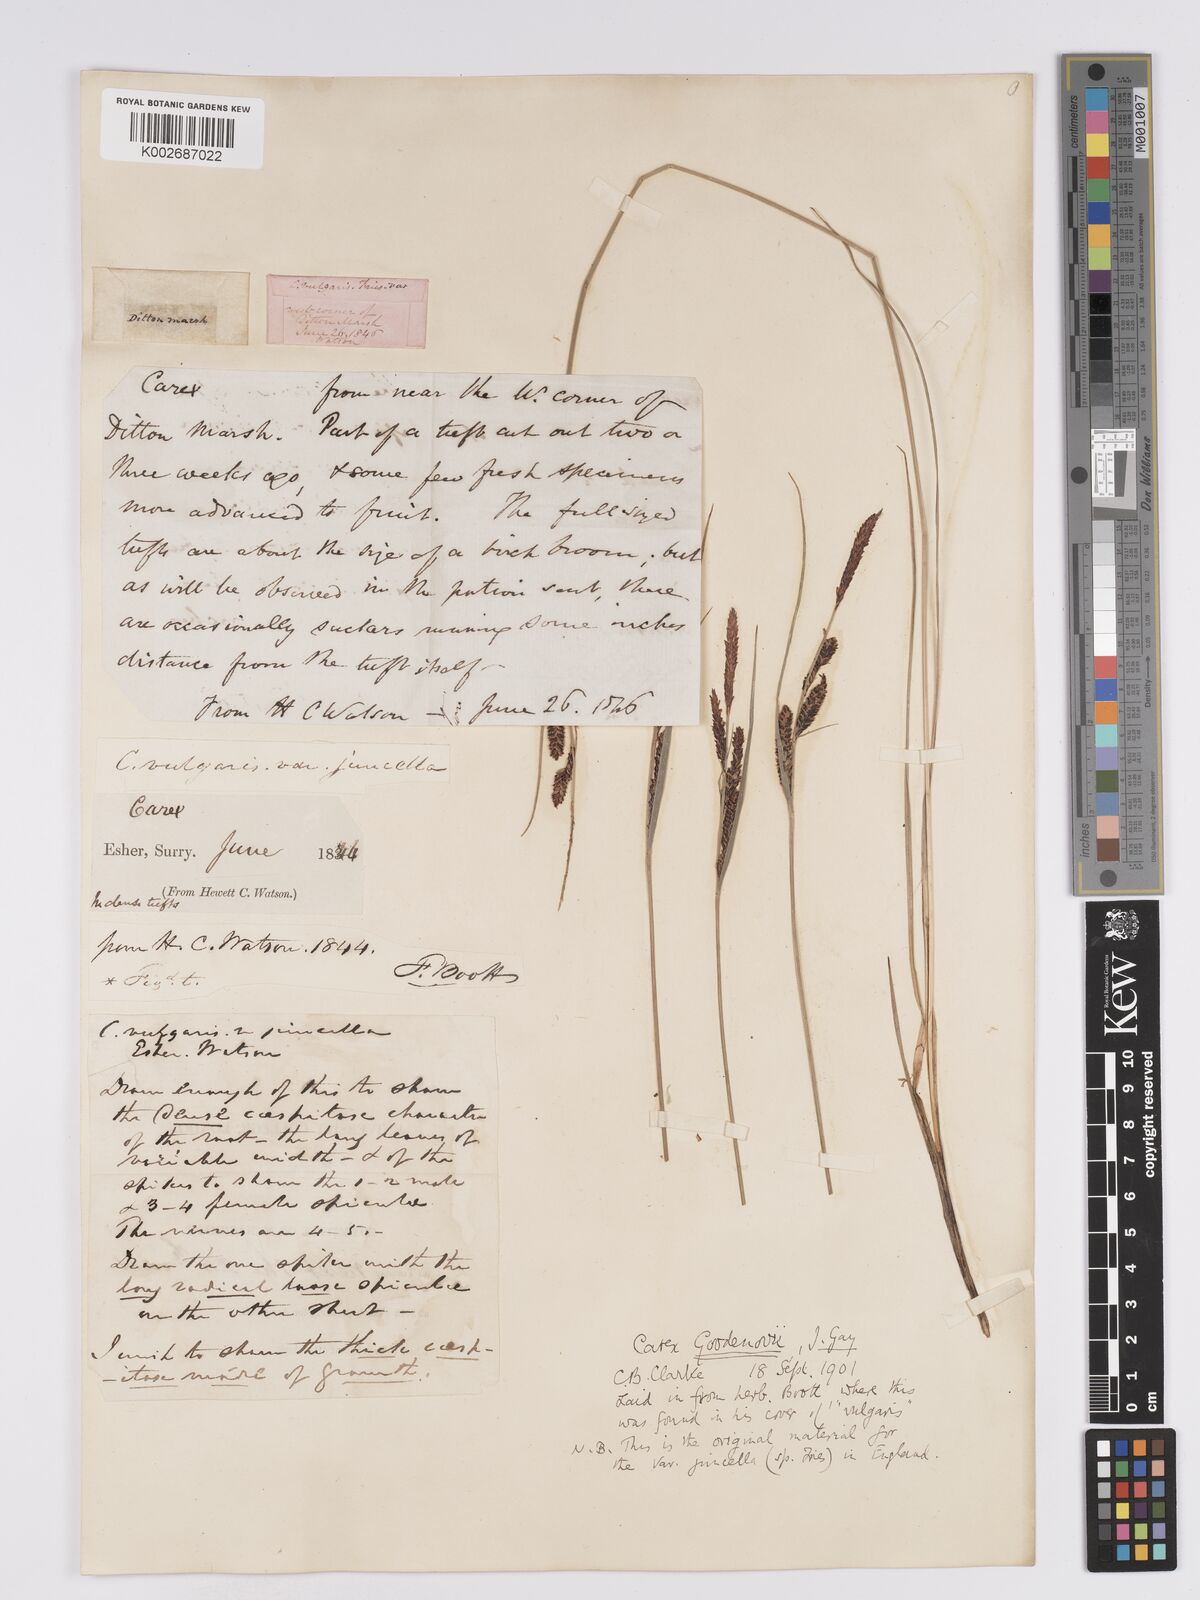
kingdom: Plantae
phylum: Tracheophyta
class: Liliopsida
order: Poales
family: Cyperaceae
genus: Carex
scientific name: Carex nigra
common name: Common sedge
